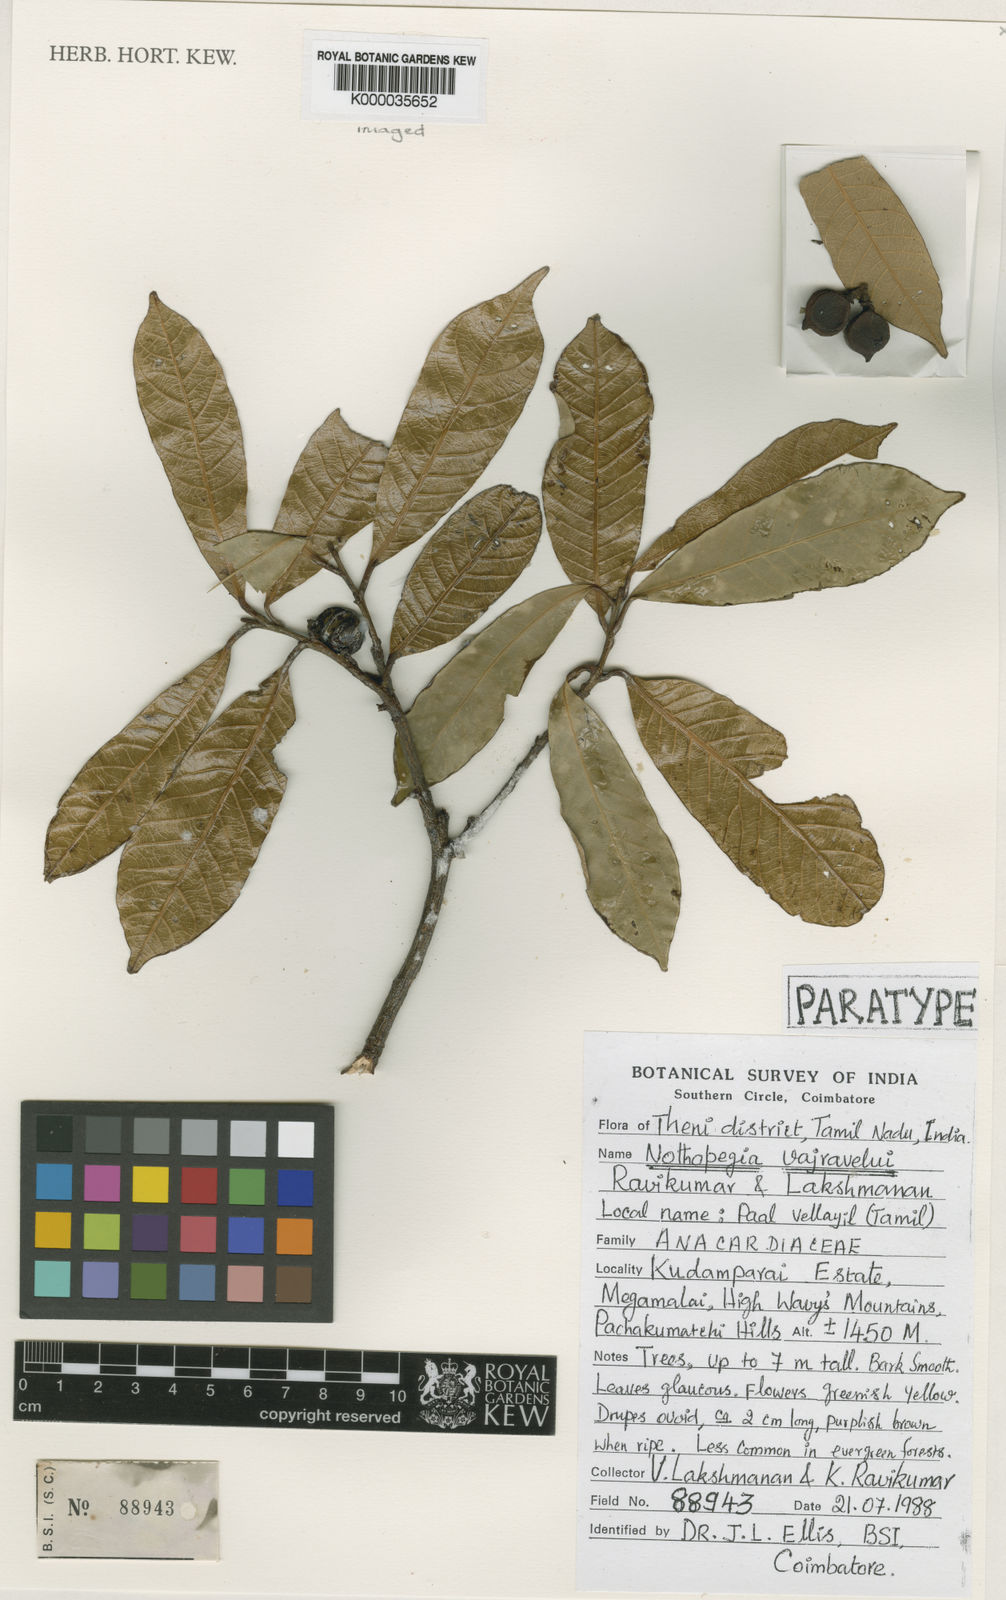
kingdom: Plantae
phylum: Tracheophyta
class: Magnoliopsida
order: Sapindales
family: Anacardiaceae
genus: Nothopegia
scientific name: Nothopegia vajravelui
